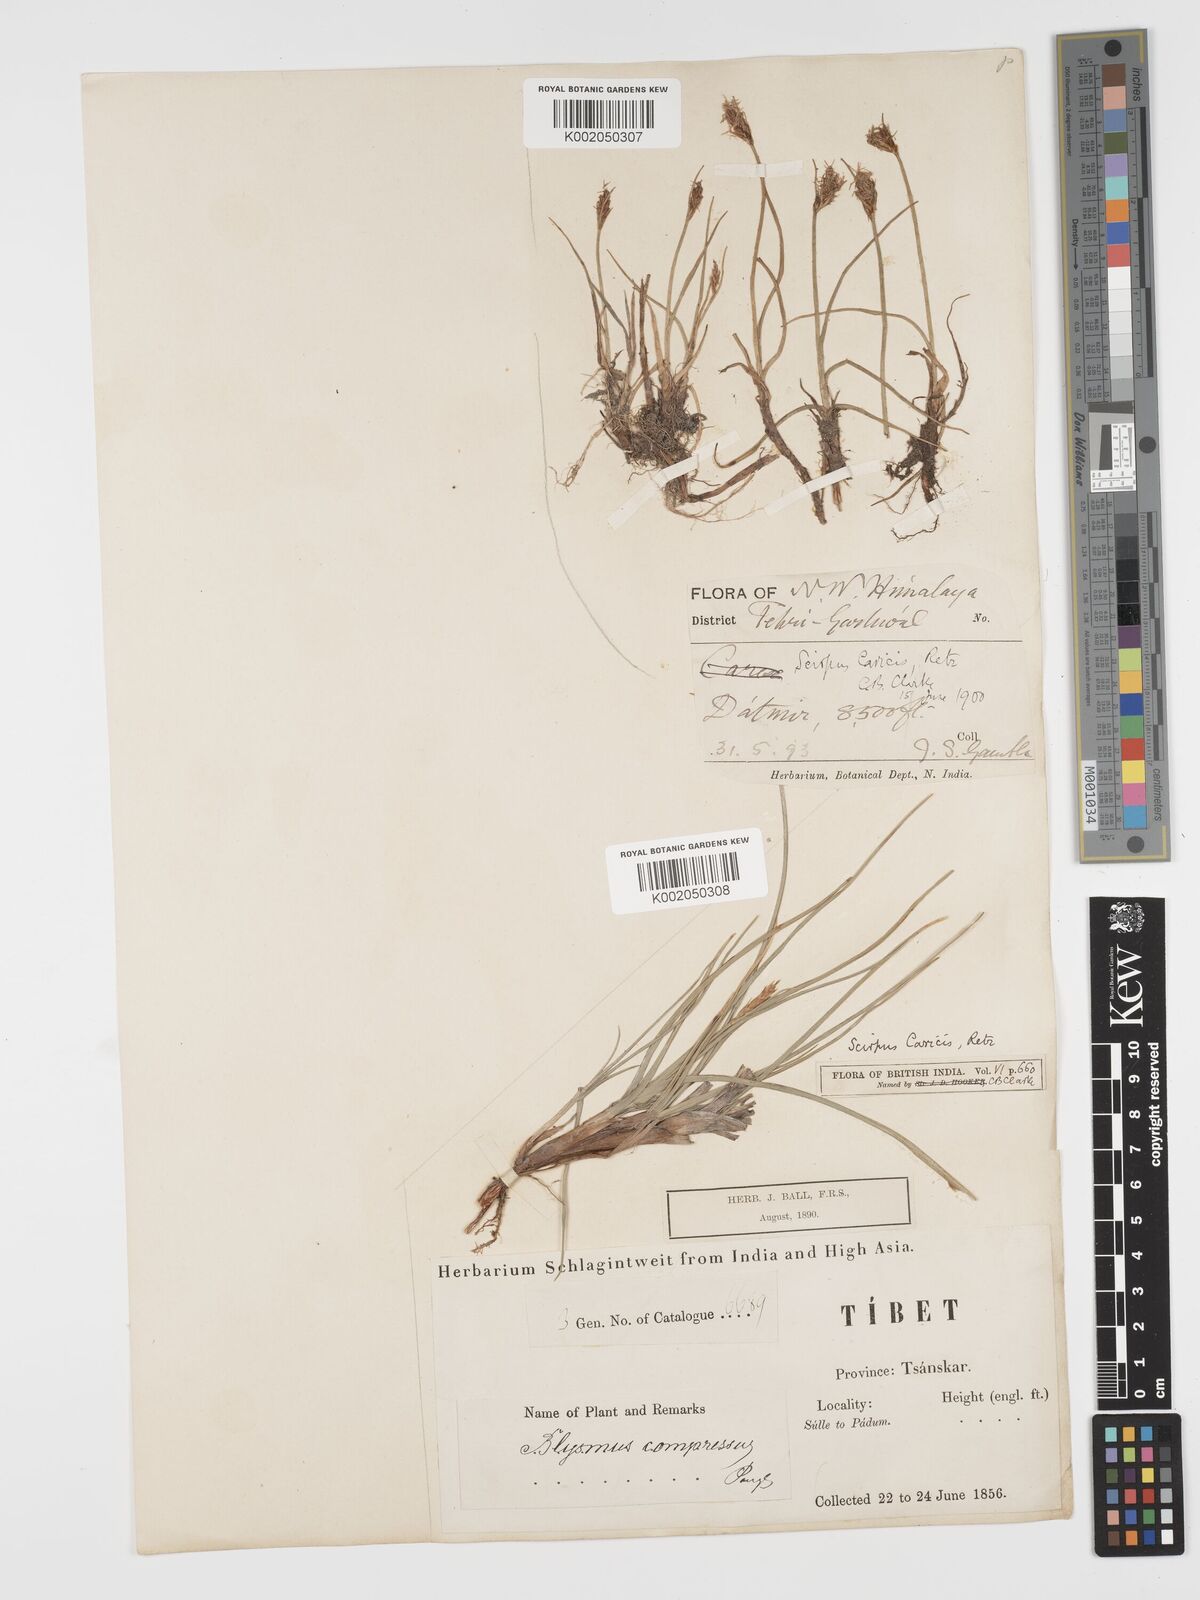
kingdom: Plantae
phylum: Tracheophyta
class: Liliopsida
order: Poales
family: Cyperaceae
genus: Blysmus
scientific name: Blysmus compressus
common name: Flat-sedge
